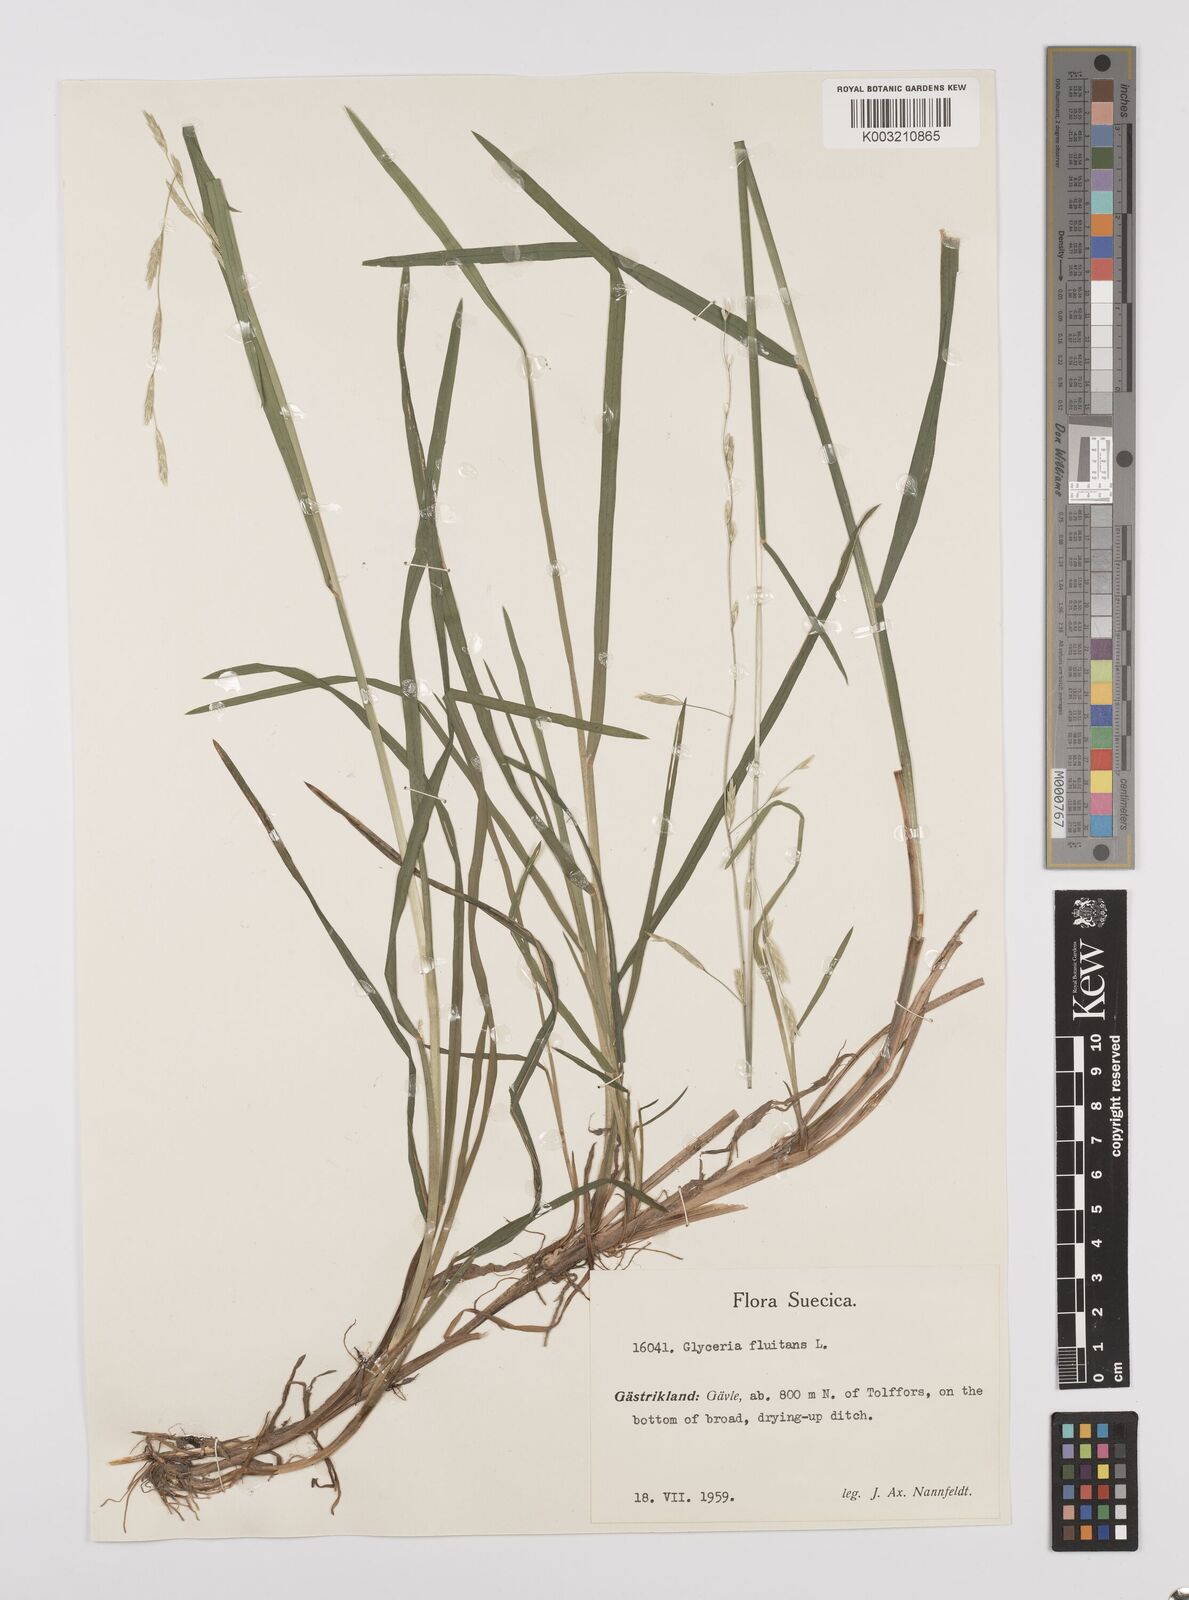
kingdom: Plantae
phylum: Tracheophyta
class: Liliopsida
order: Poales
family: Poaceae
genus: Glyceria
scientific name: Glyceria fluitans
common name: Floating sweet-grass
